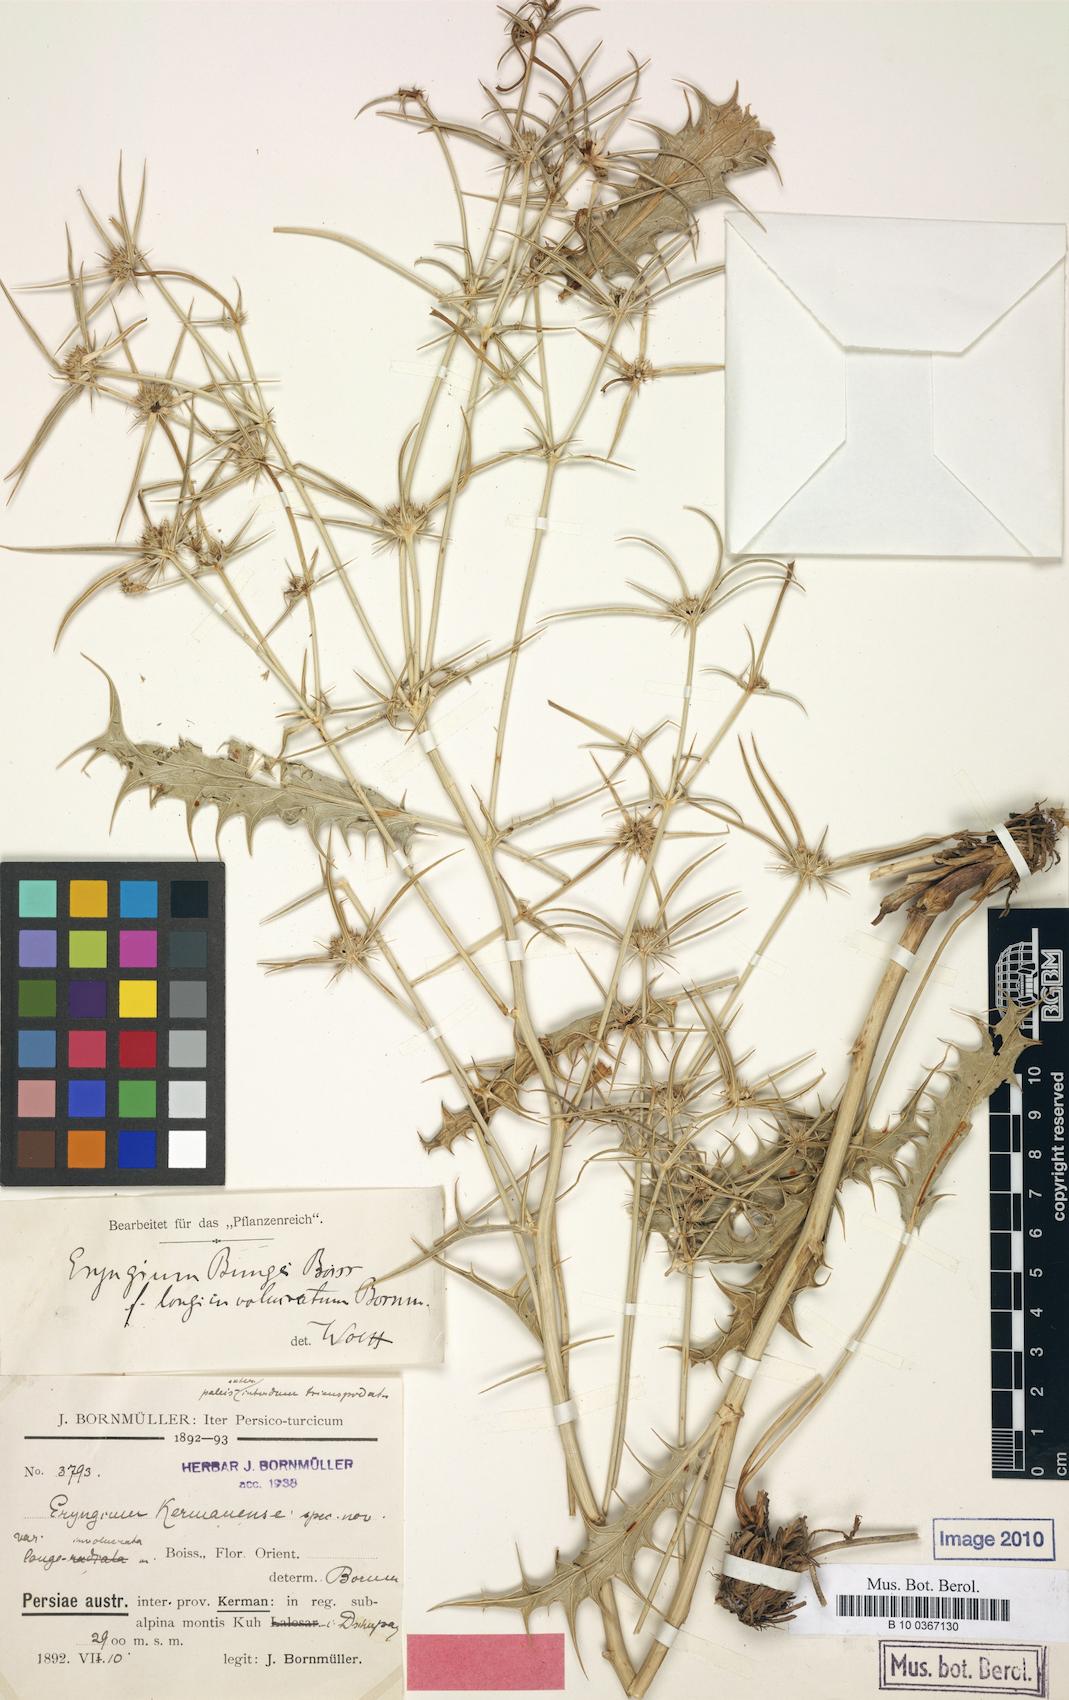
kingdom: Plantae
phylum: Tracheophyta
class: Magnoliopsida
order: Apiales
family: Apiaceae
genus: Eryngium
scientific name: Eryngium bungei
